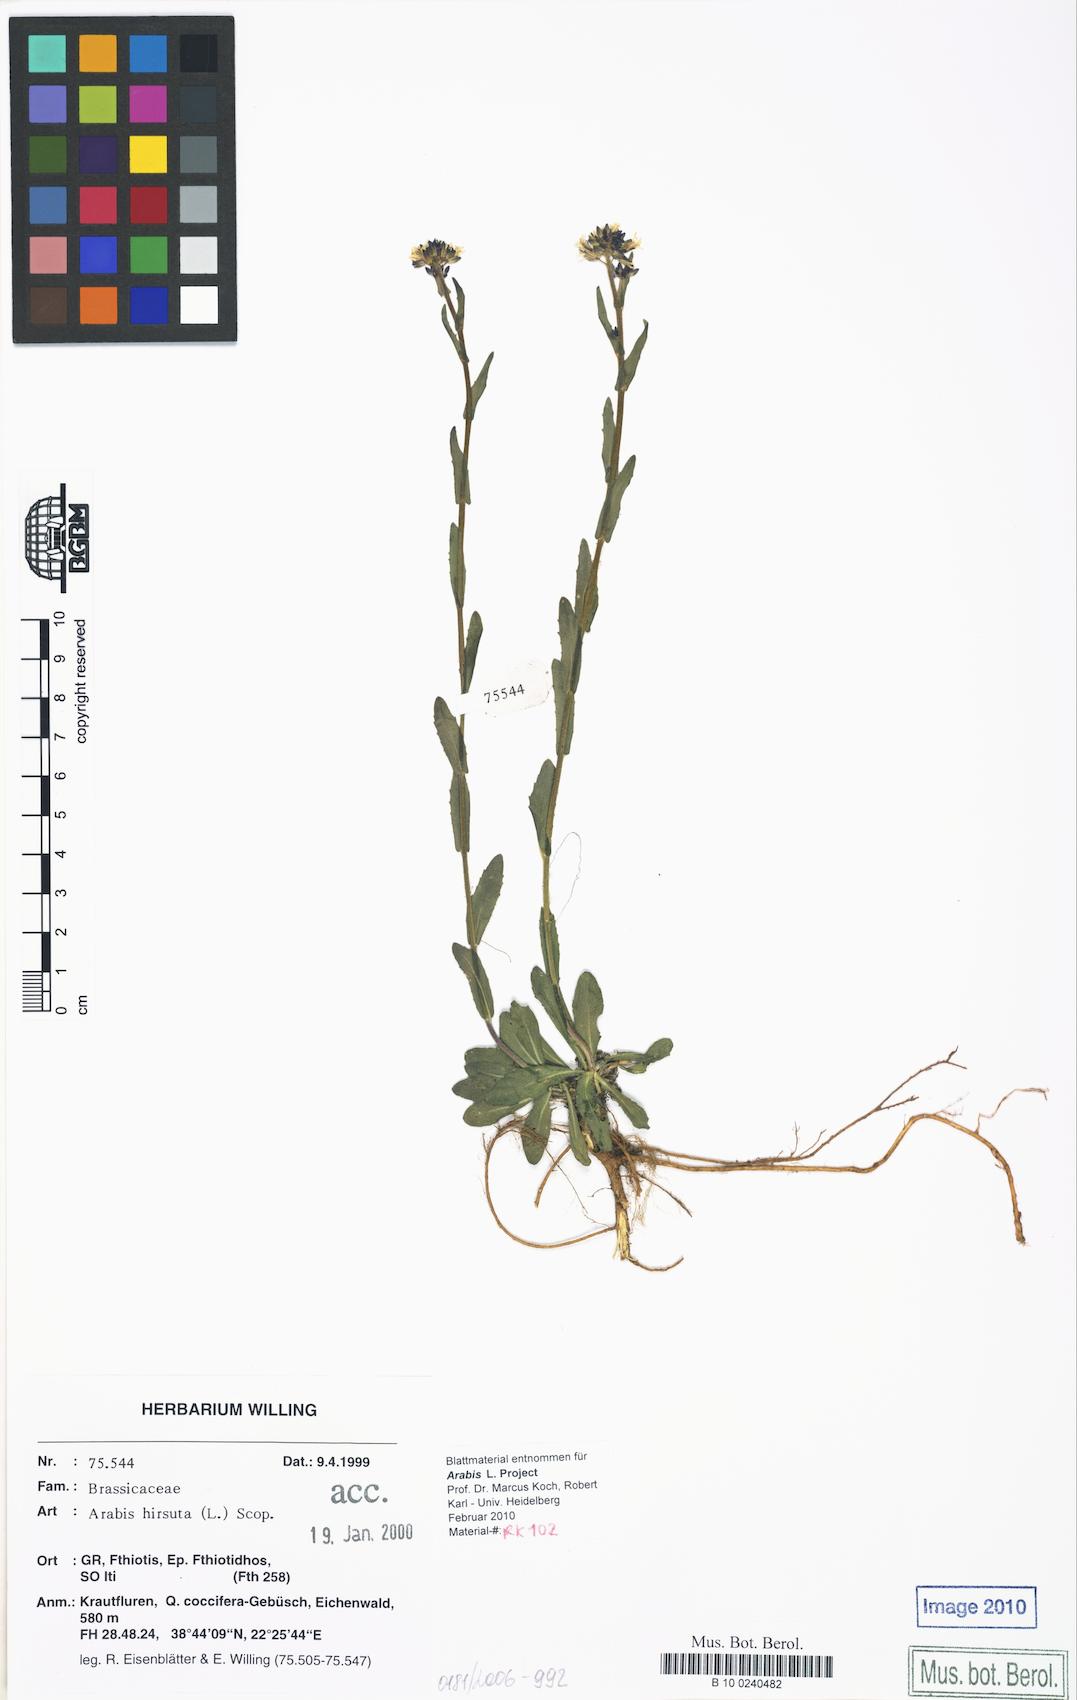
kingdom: Plantae
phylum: Tracheophyta
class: Magnoliopsida
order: Brassicales
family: Brassicaceae
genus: Arabis
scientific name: Arabis hirsuta
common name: Hairy rock-cress
